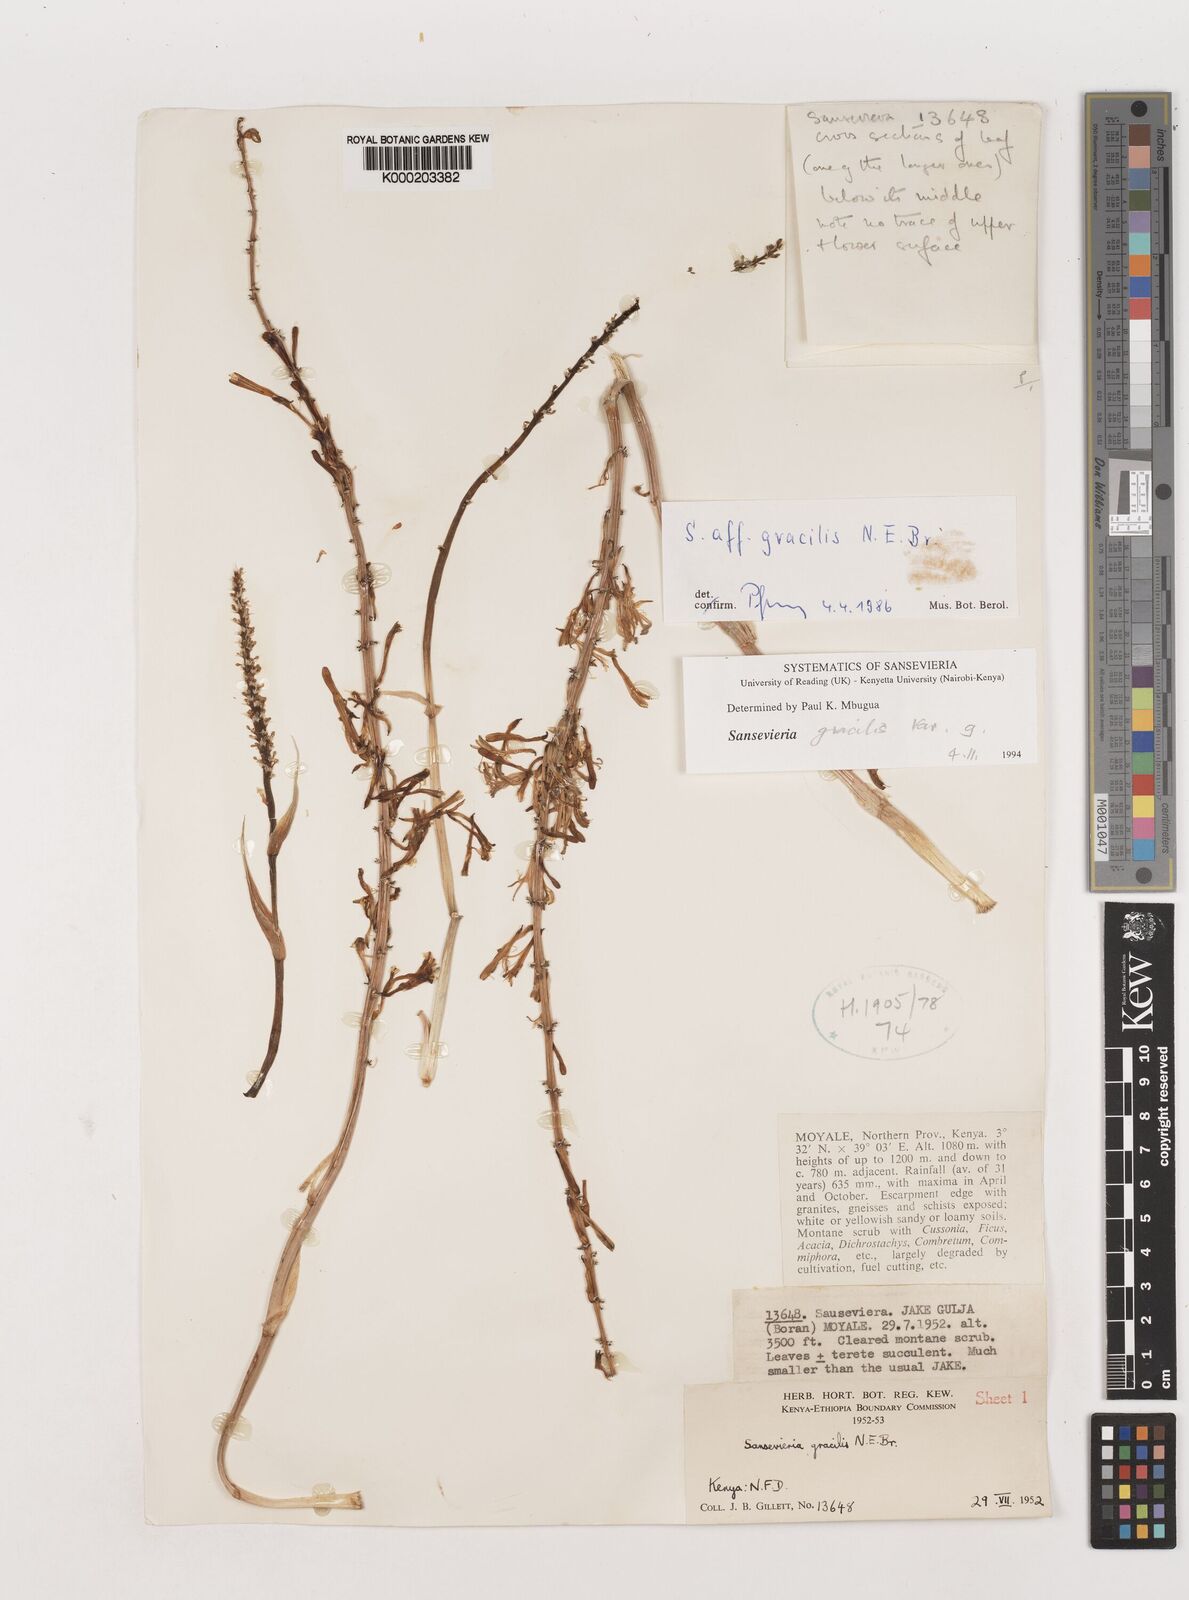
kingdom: Plantae
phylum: Tracheophyta
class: Liliopsida
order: Asparagales
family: Asparagaceae
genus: Dracaena
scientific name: Dracaena serpenta
